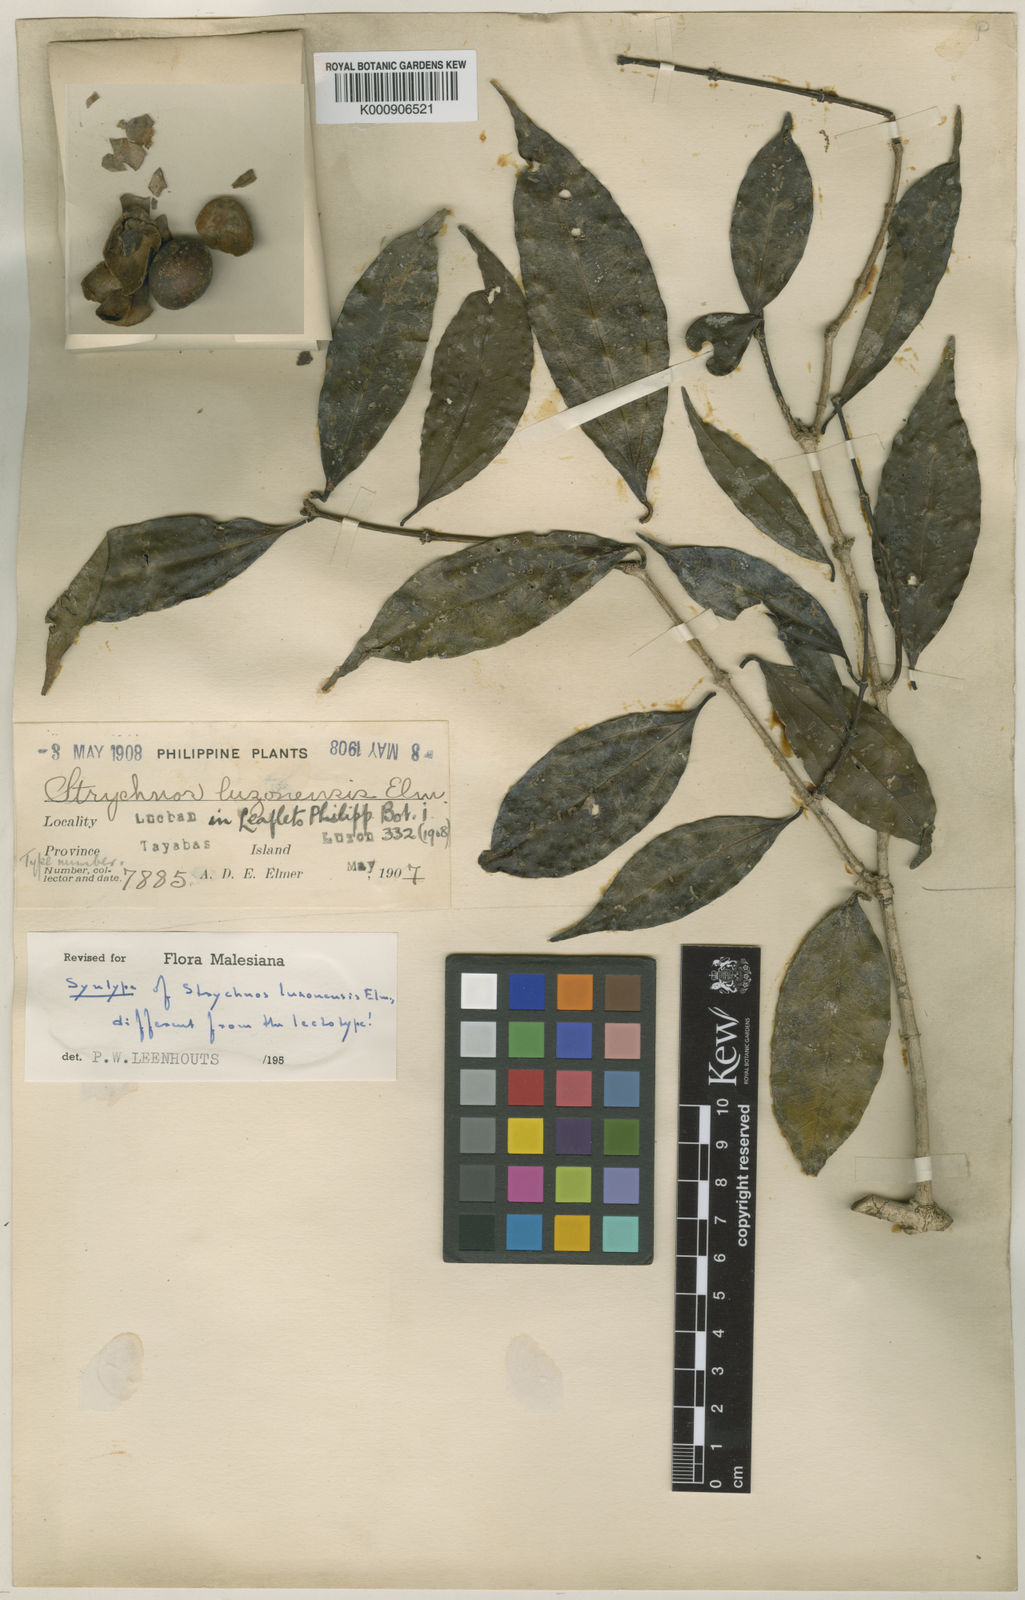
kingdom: Plantae
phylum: Tracheophyta
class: Magnoliopsida
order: Gentianales
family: Loganiaceae
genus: Strychnos
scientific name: Strychnos minor
